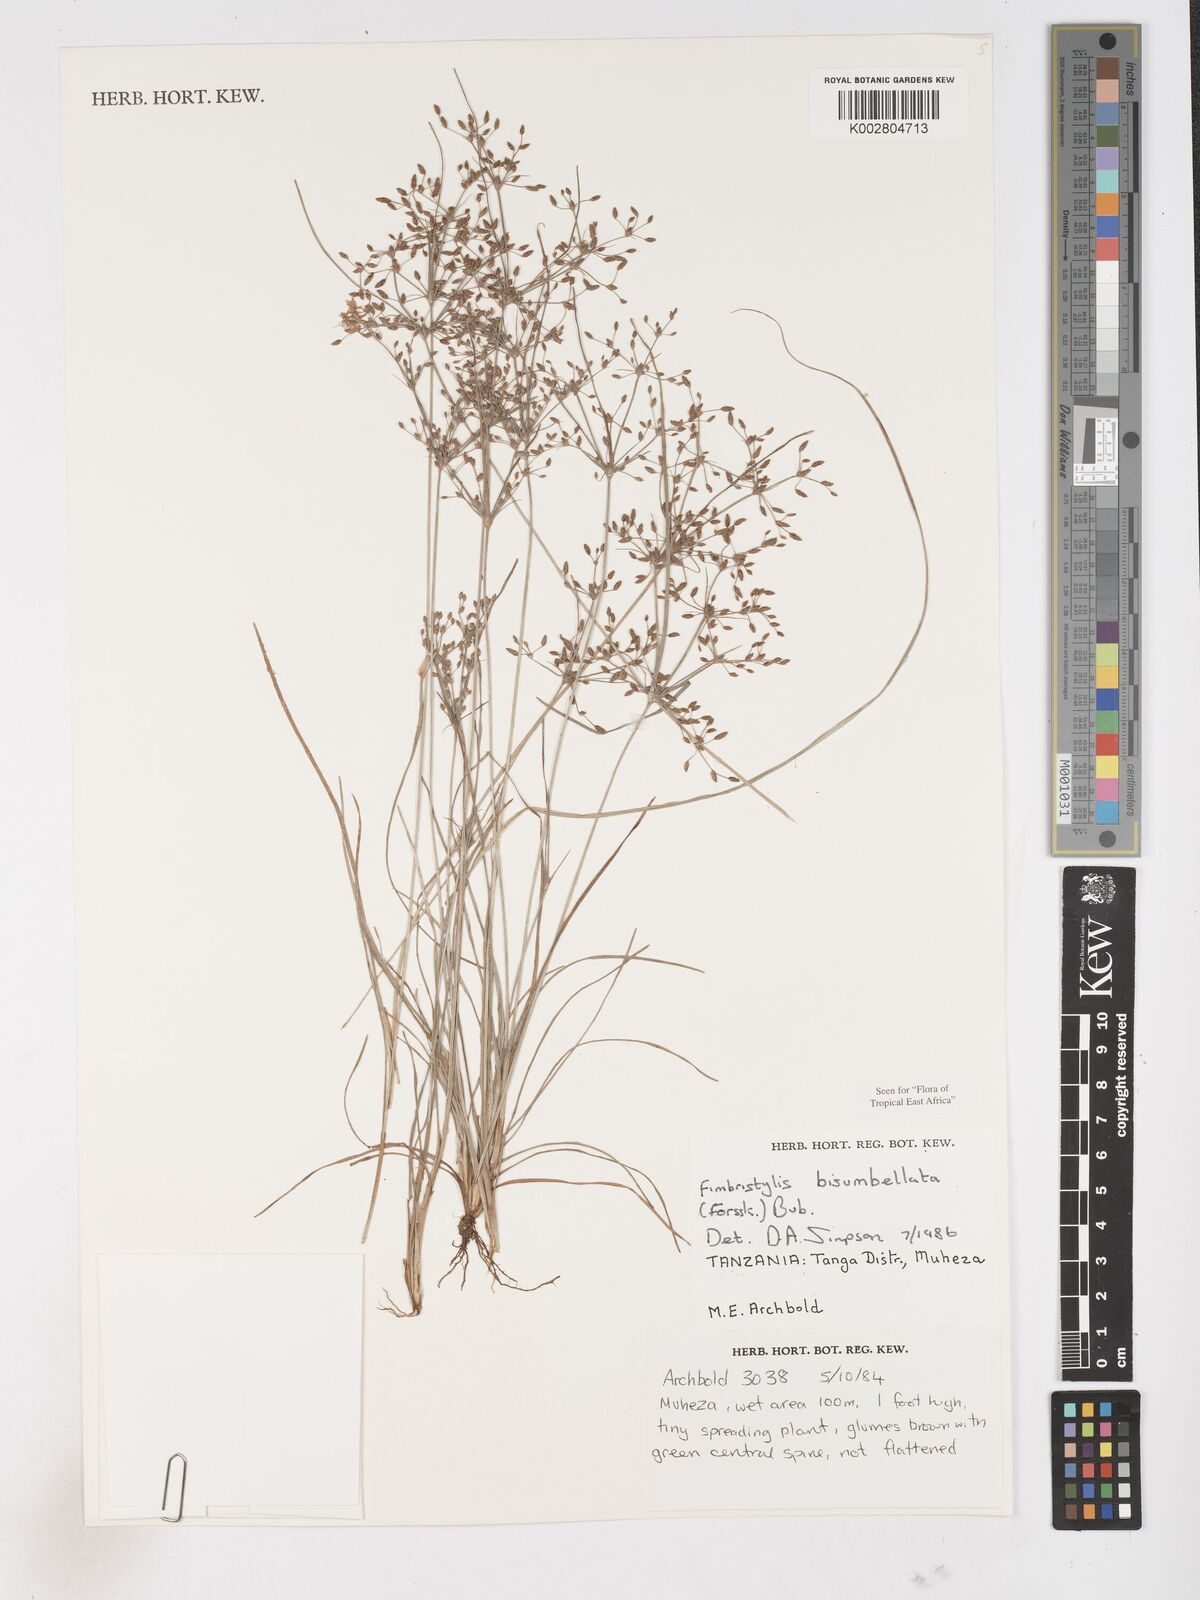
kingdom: Plantae
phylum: Tracheophyta
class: Liliopsida
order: Poales
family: Cyperaceae
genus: Fimbristylis
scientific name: Fimbristylis bisumbellata
